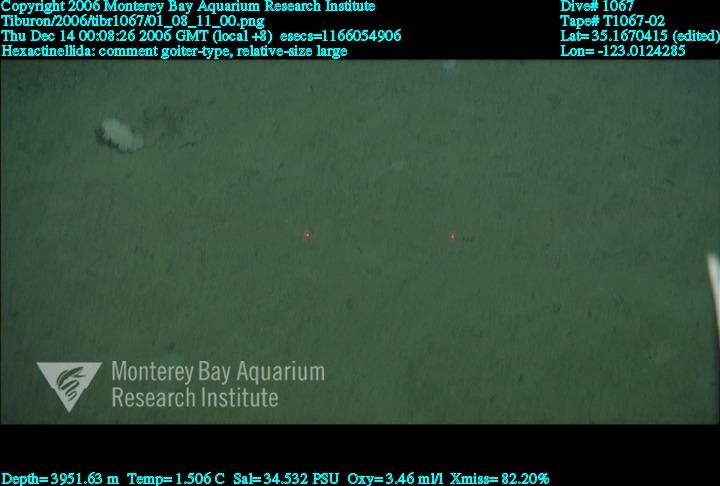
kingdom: Animalia
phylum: Porifera
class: Hexactinellida
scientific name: Hexactinellida
